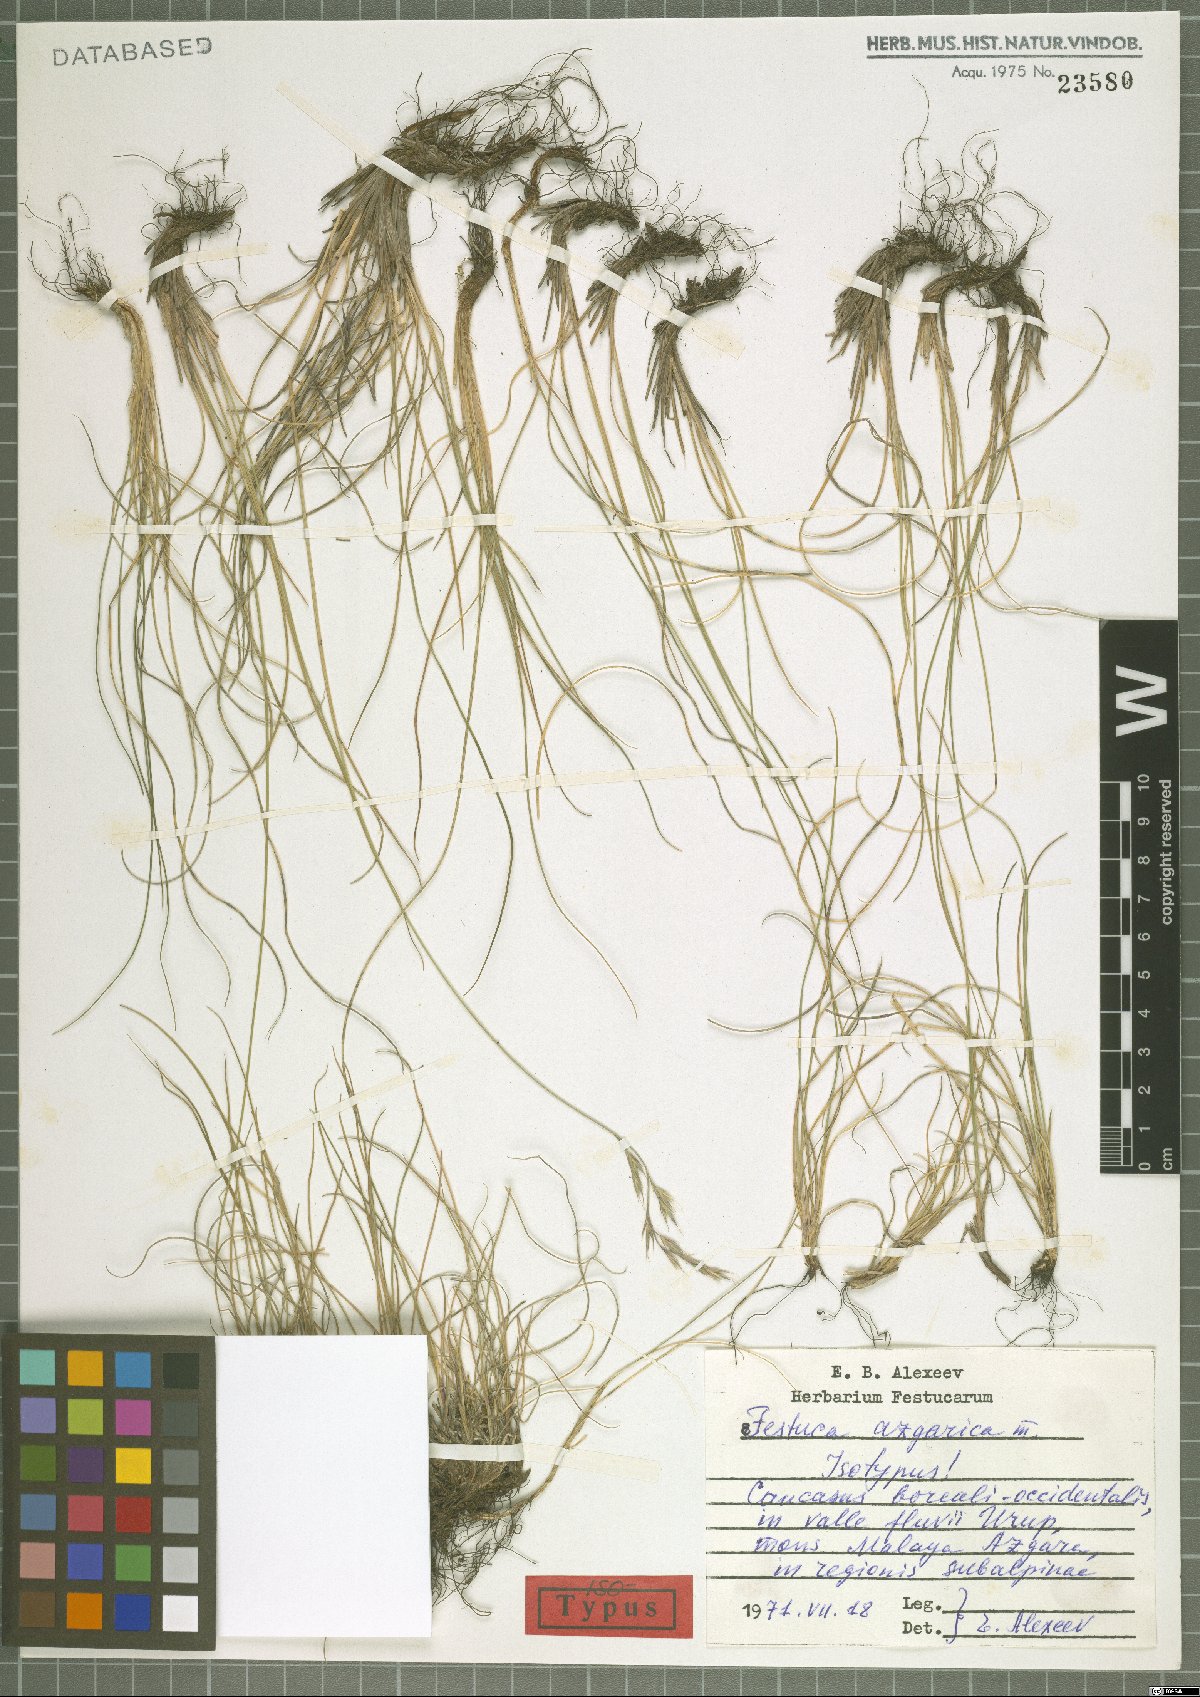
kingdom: Plantae
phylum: Tracheophyta
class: Liliopsida
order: Poales
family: Poaceae
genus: Festuca
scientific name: Festuca azgarica
